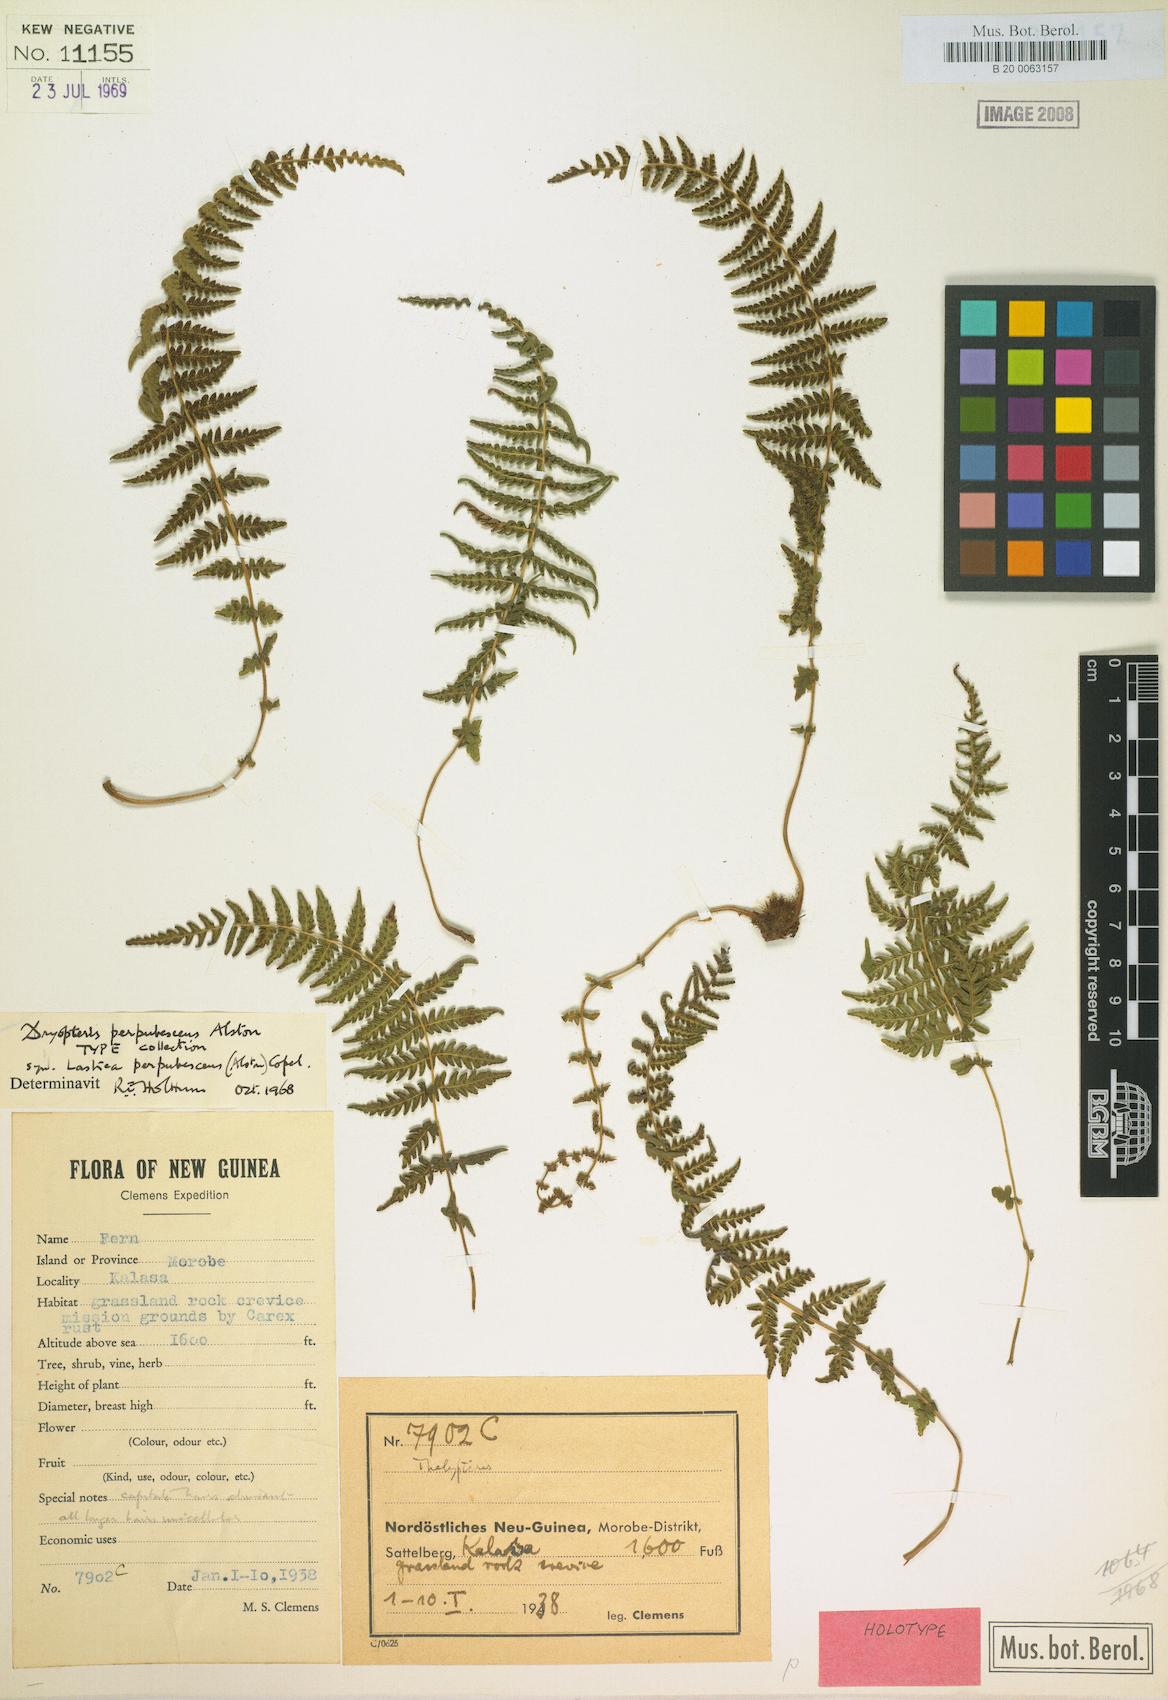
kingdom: Plantae
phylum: Tracheophyta
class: Polypodiopsida
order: Polypodiales
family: Thelypteridaceae
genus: Christella
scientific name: Christella perpubescens
